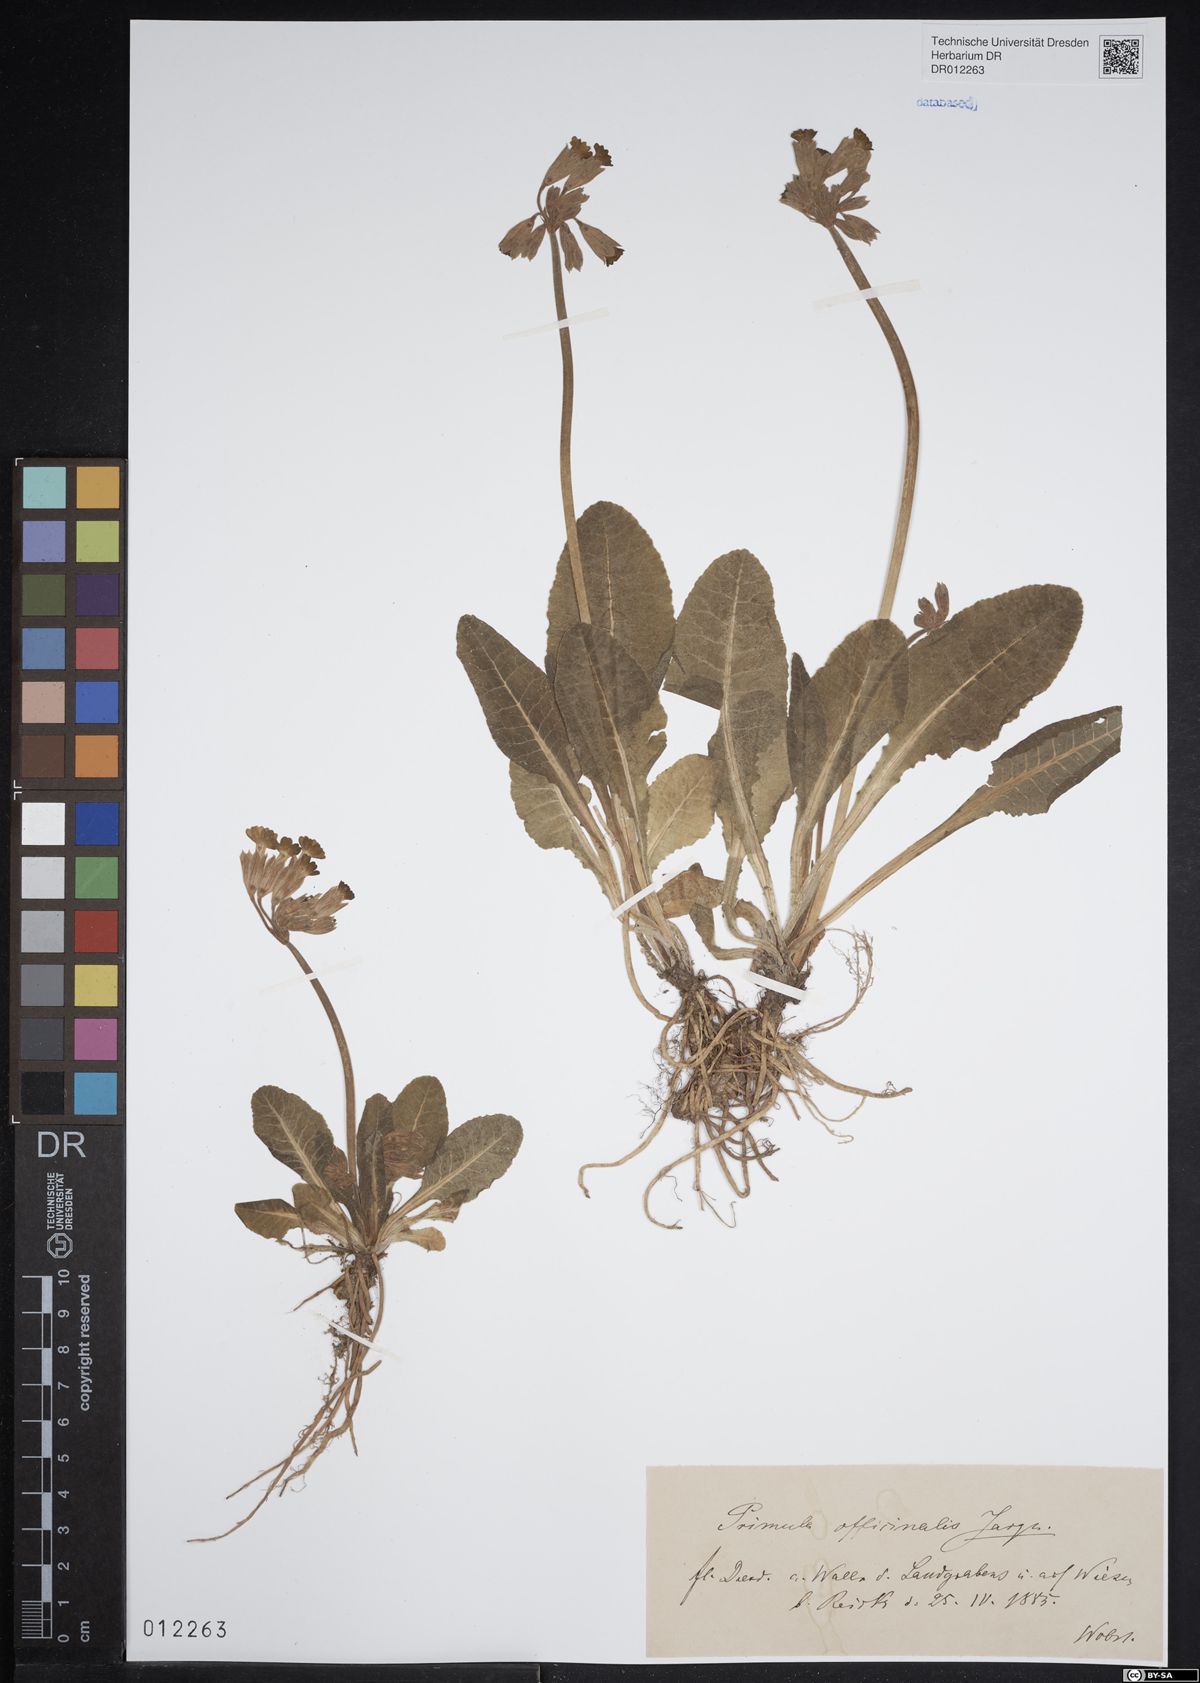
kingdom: Plantae
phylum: Tracheophyta
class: Magnoliopsida
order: Ericales
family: Primulaceae
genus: Primula
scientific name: Primula veris
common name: Cowslip
